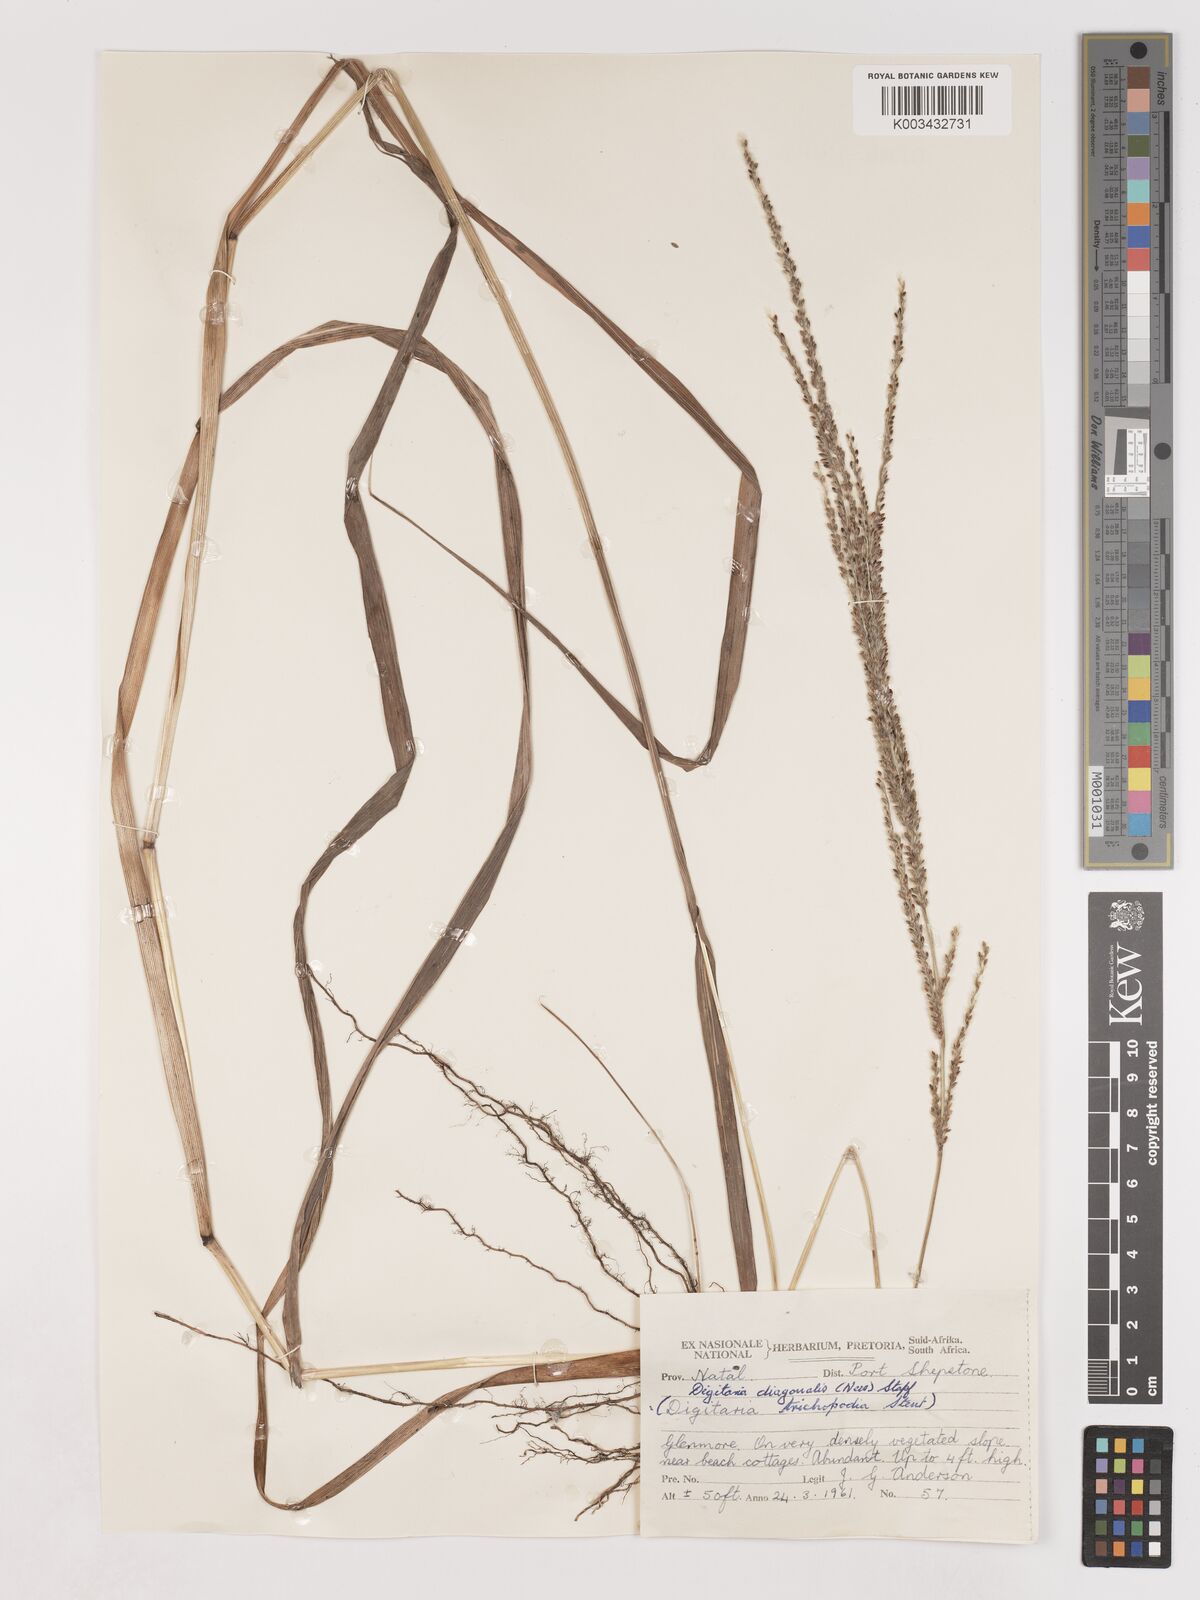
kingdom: Plantae
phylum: Tracheophyta
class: Liliopsida
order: Poales
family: Poaceae
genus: Digitaria
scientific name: Digitaria diagonalis
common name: Brown-seed finger grass
